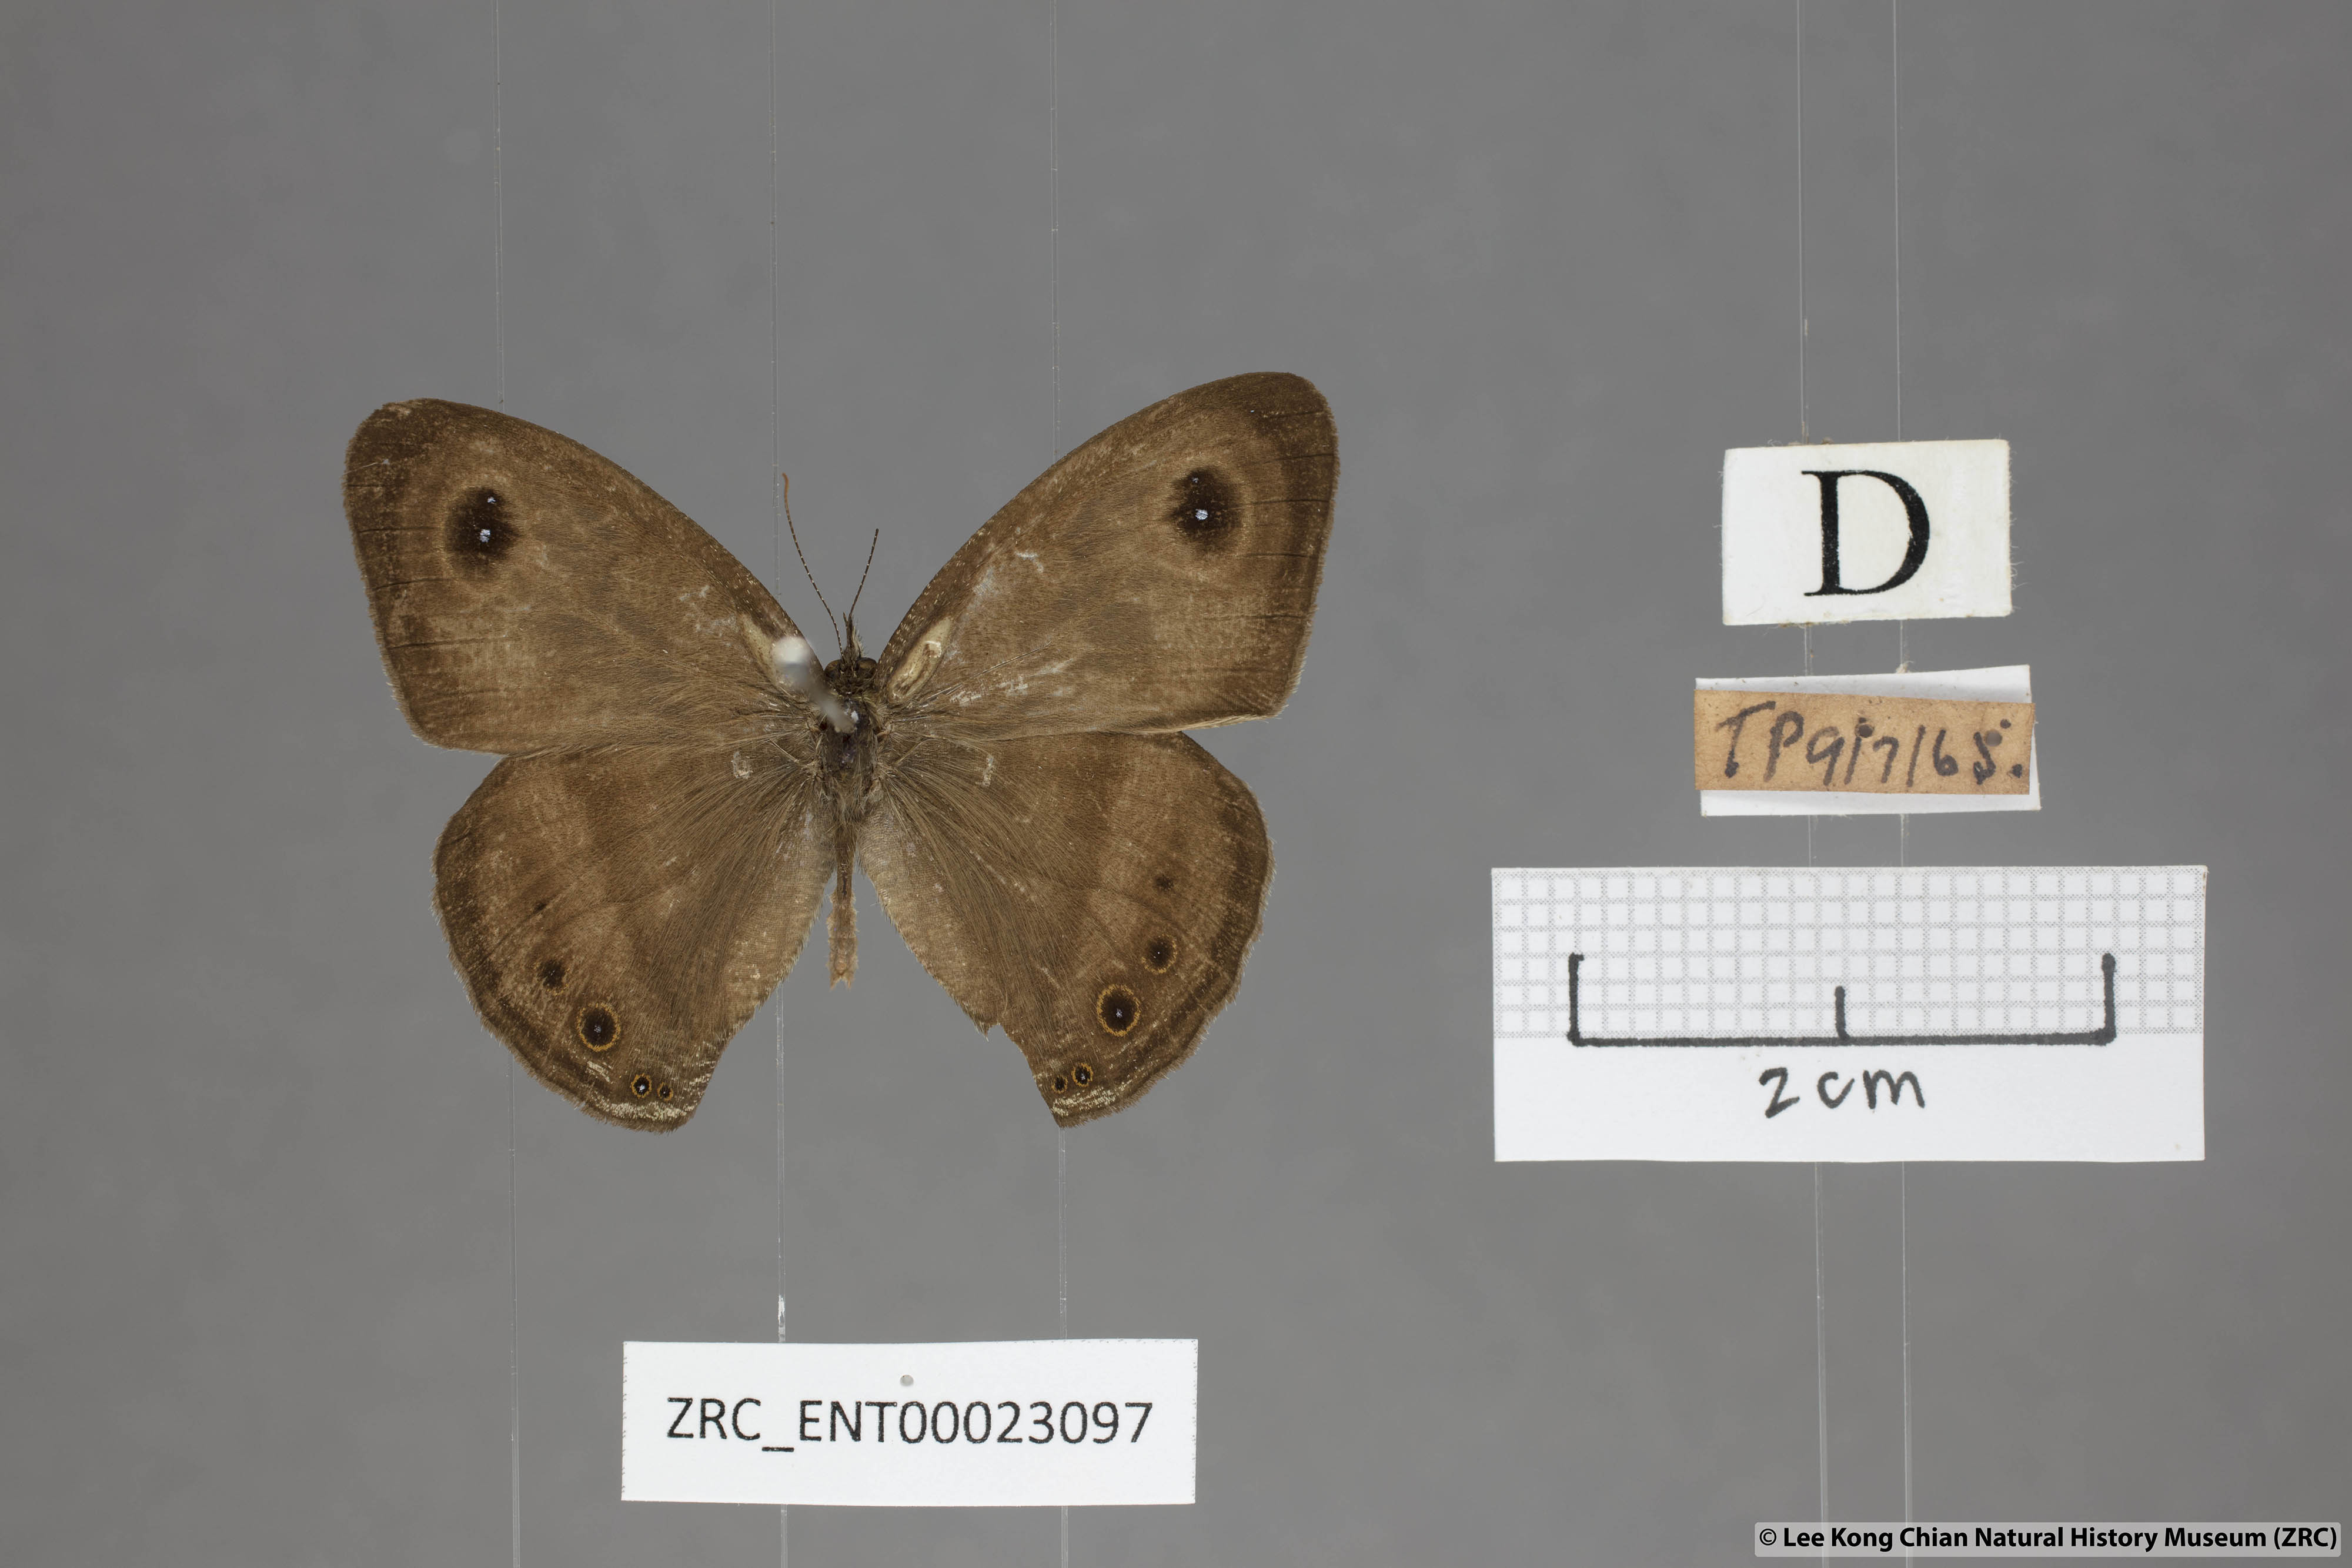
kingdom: Animalia
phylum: Arthropoda
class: Insecta
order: Lepidoptera
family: Nymphalidae
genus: Ypthima
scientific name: Ypthima fasciata
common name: Malayan six-ring
